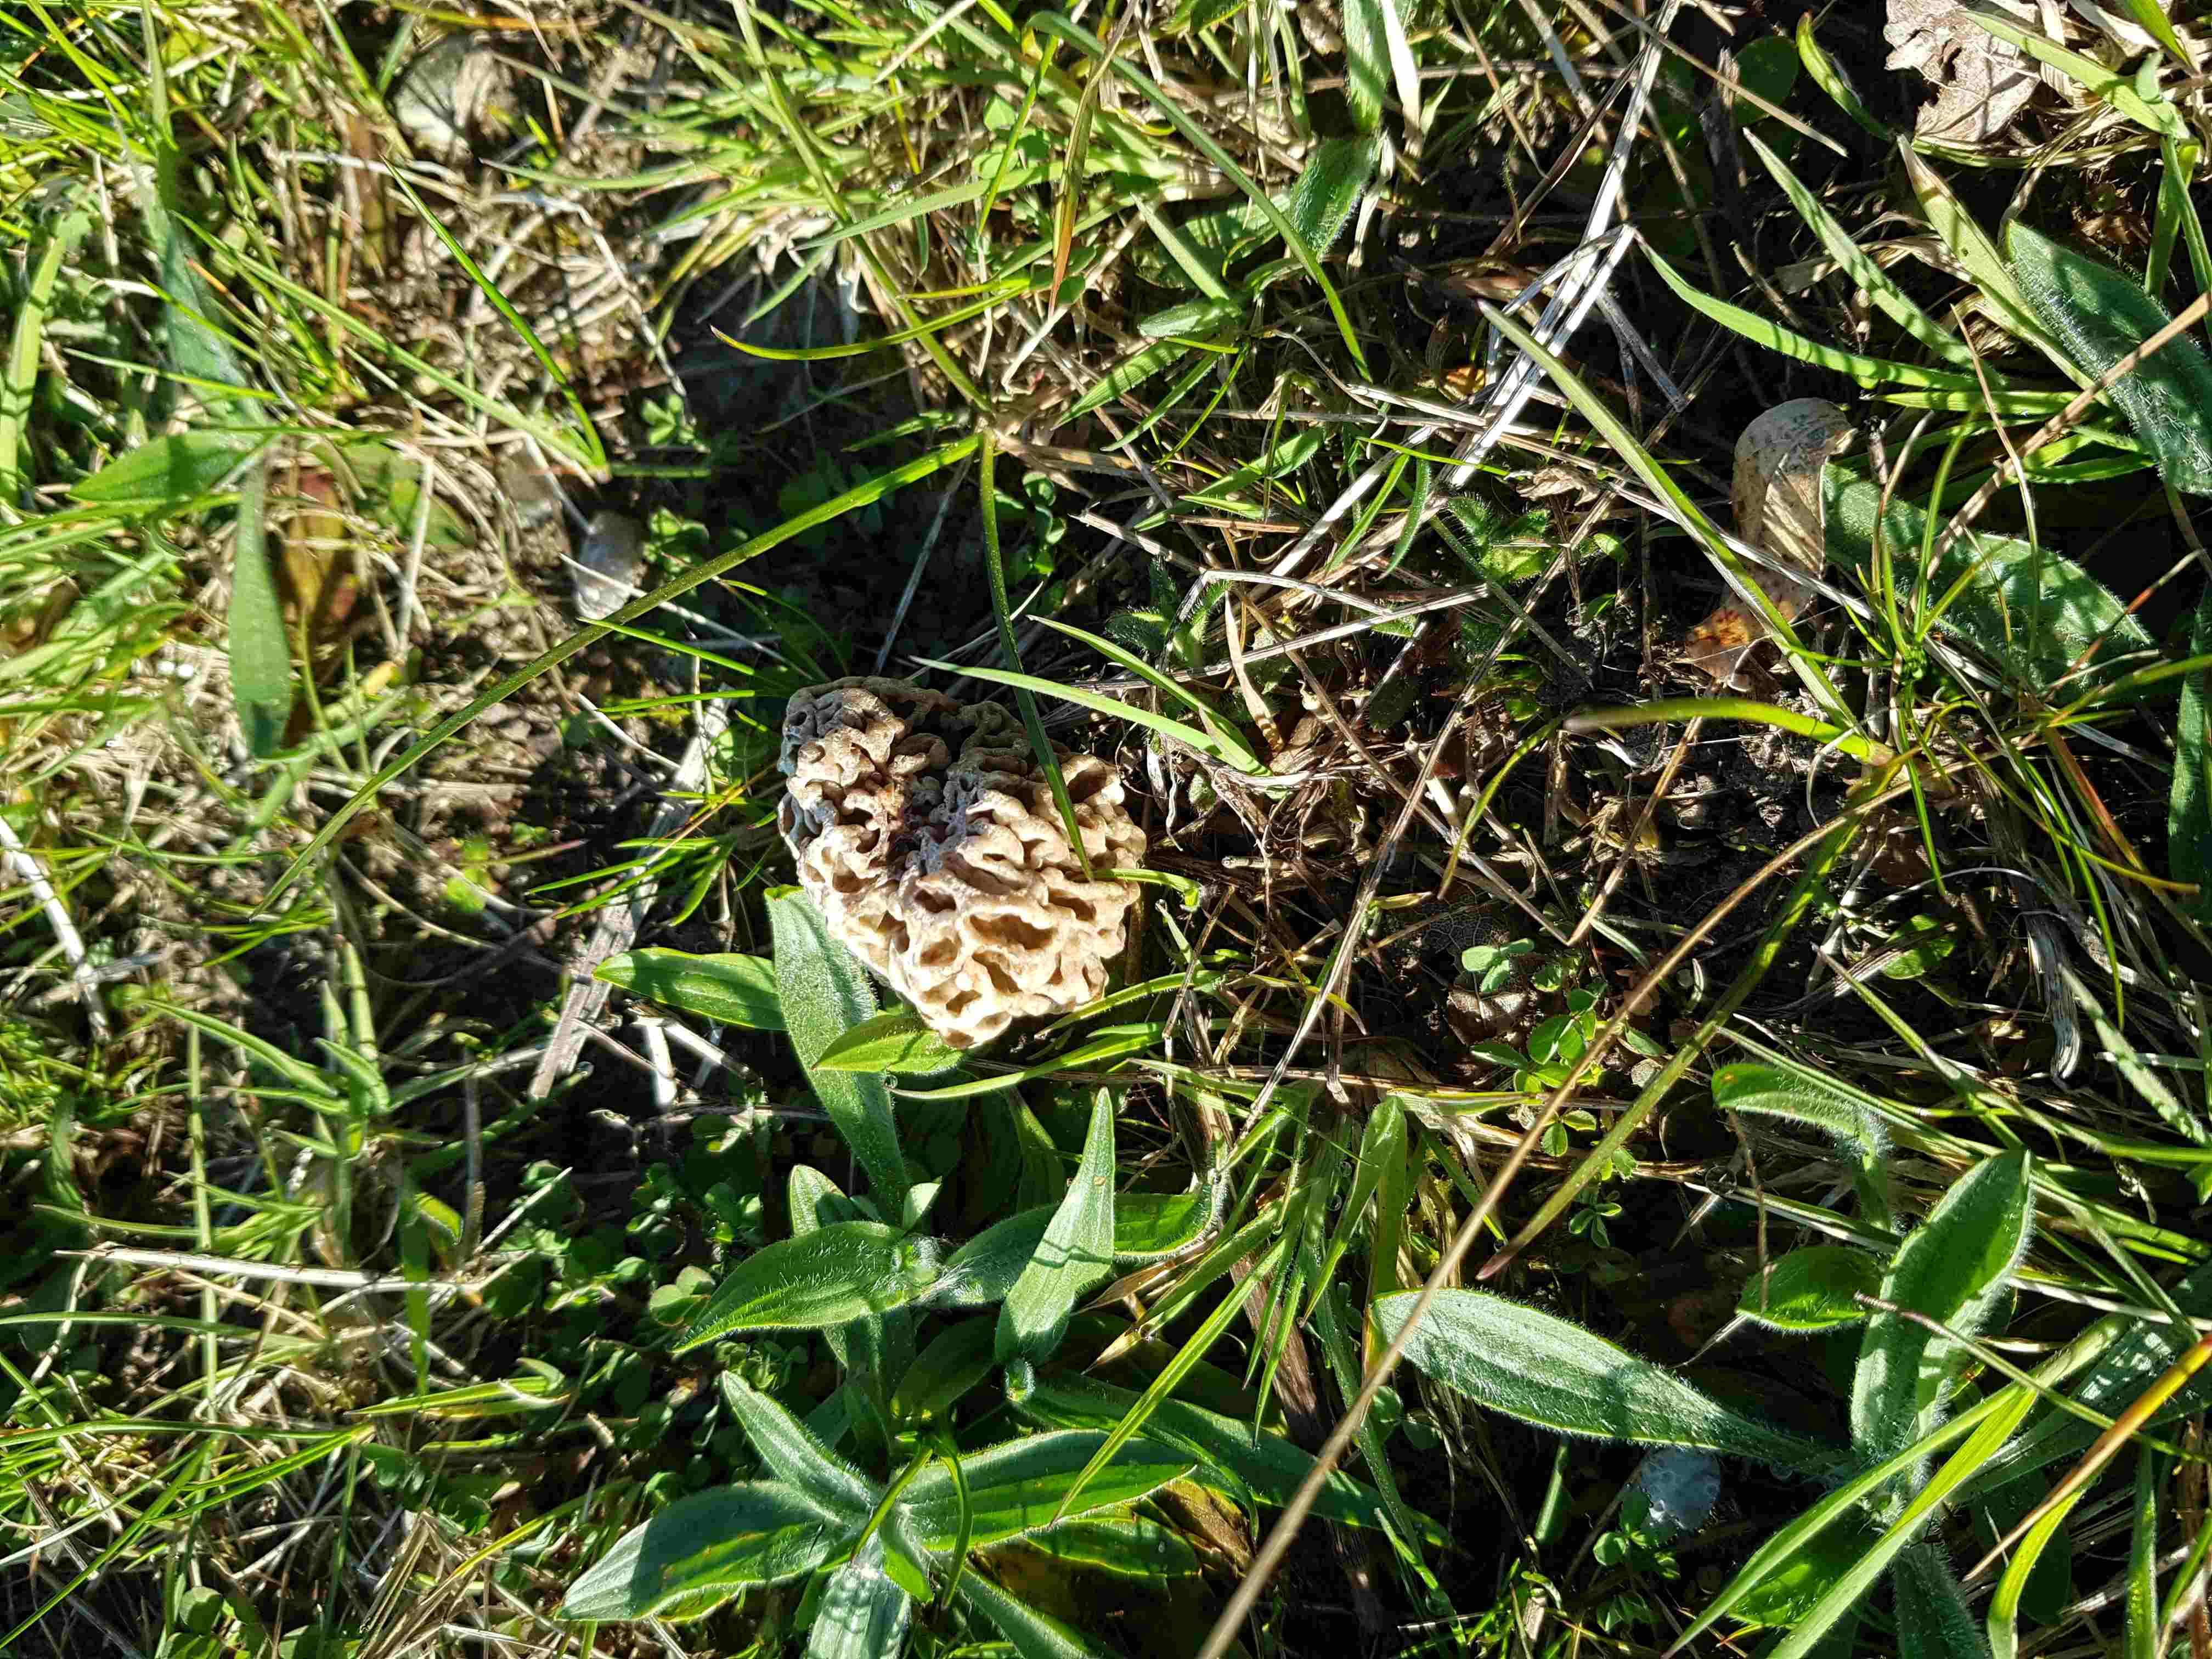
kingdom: Fungi
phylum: Ascomycota
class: Pezizomycetes
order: Pezizales
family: Morchellaceae
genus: Morchella
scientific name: Morchella esculenta
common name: almindelig morkel
